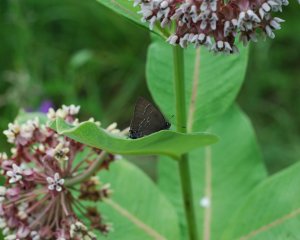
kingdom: Animalia
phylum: Arthropoda
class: Insecta
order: Lepidoptera
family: Lycaenidae
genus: Satyrium
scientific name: Satyrium calanus
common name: Banded Hairstreak
